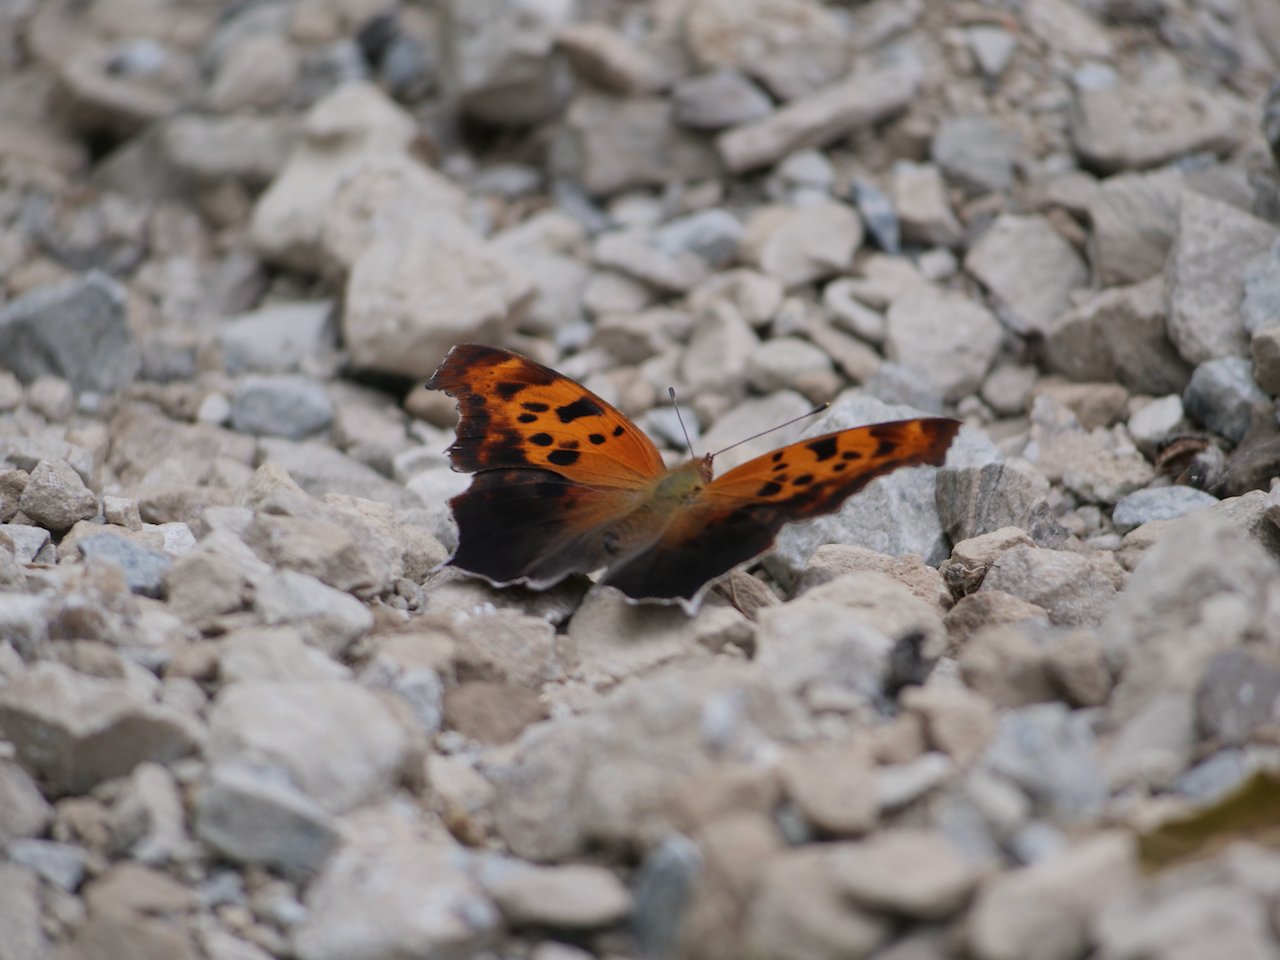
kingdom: Animalia
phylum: Arthropoda
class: Insecta
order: Lepidoptera
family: Nymphalidae
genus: Polygonia
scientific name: Polygonia interrogationis
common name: Question Mark
